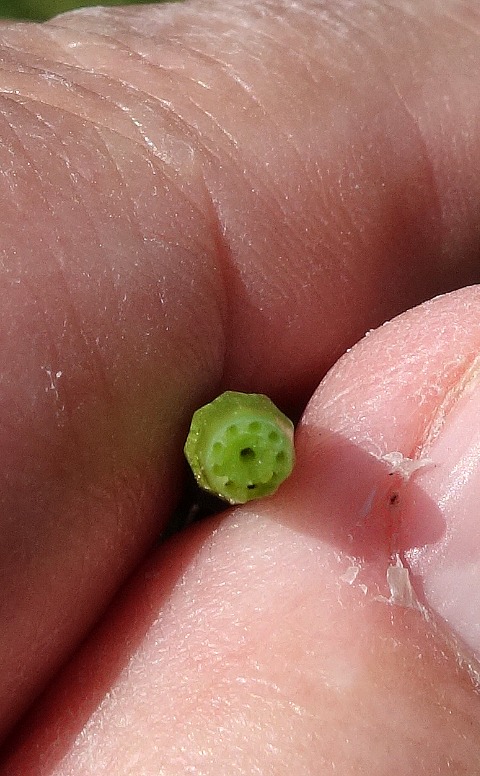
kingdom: Plantae
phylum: Tracheophyta
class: Polypodiopsida
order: Equisetales
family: Equisetaceae
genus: Equisetum
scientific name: Equisetum palustre
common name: Kær-padderok
